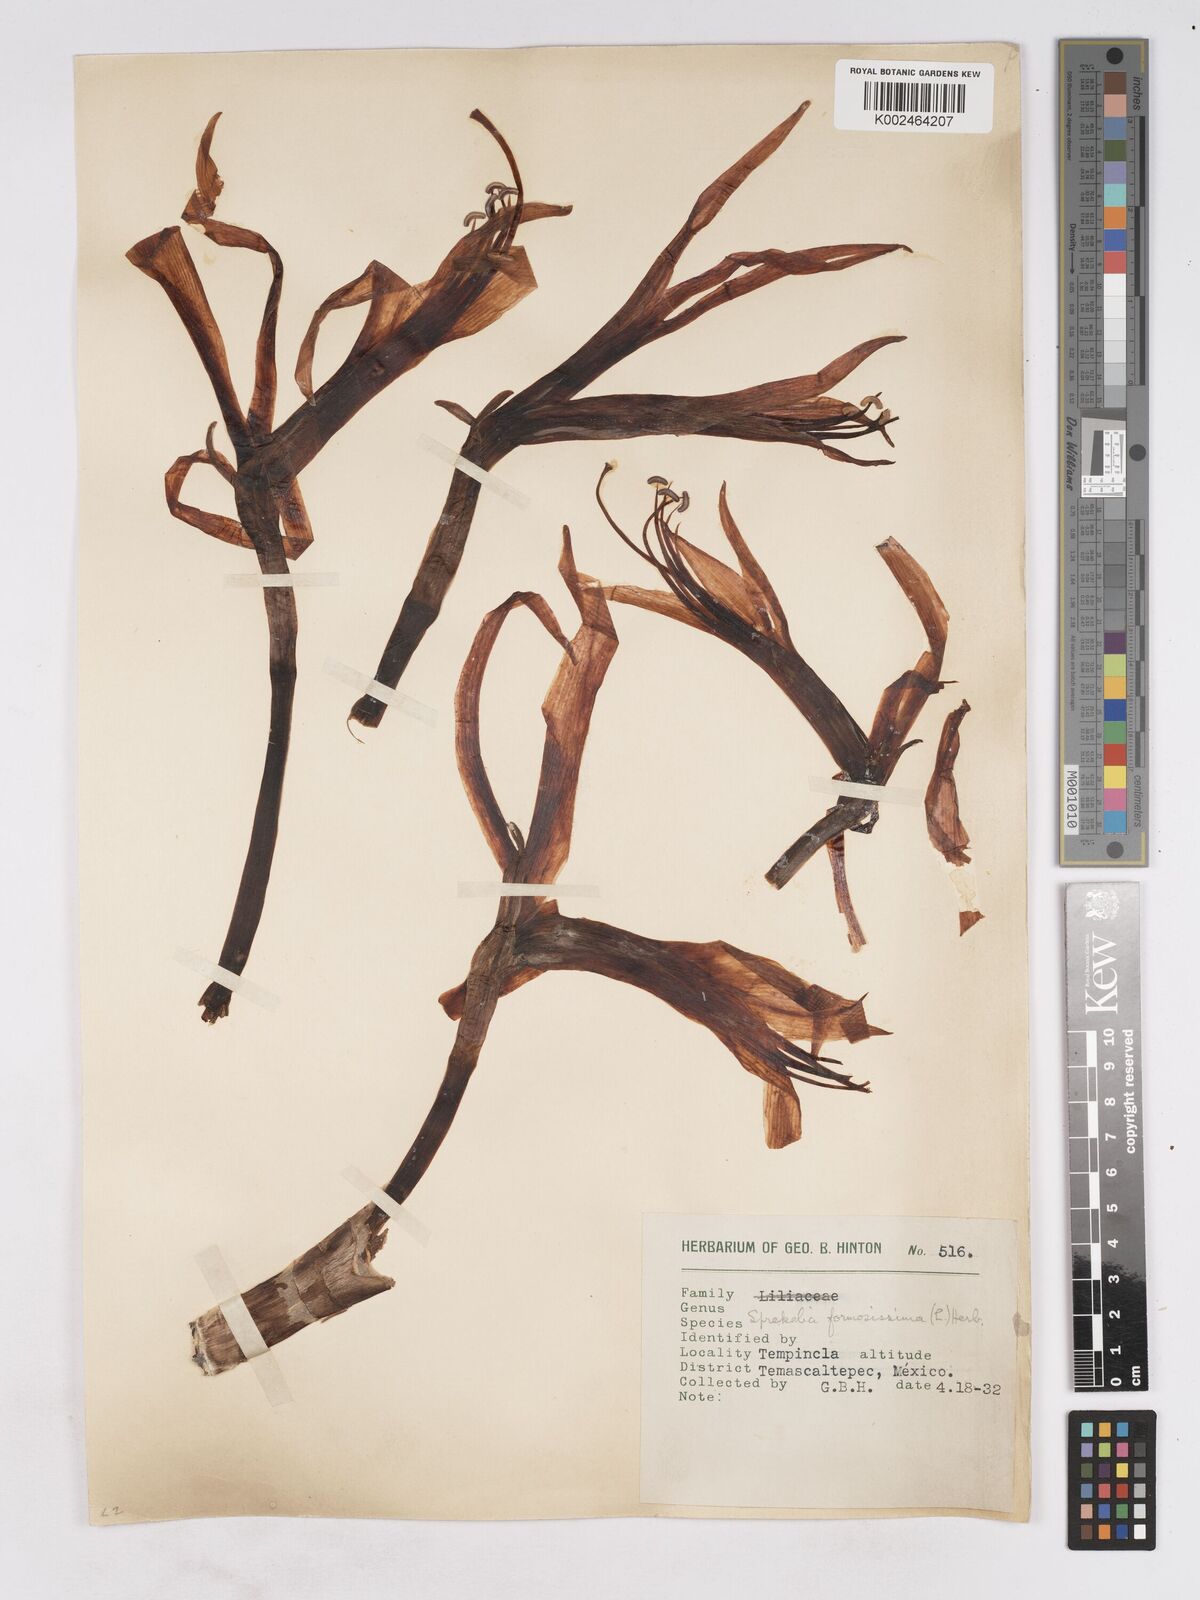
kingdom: Plantae
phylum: Tracheophyta
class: Liliopsida
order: Asparagales
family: Amaryllidaceae
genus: Sprekelia
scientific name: Sprekelia formosissima
